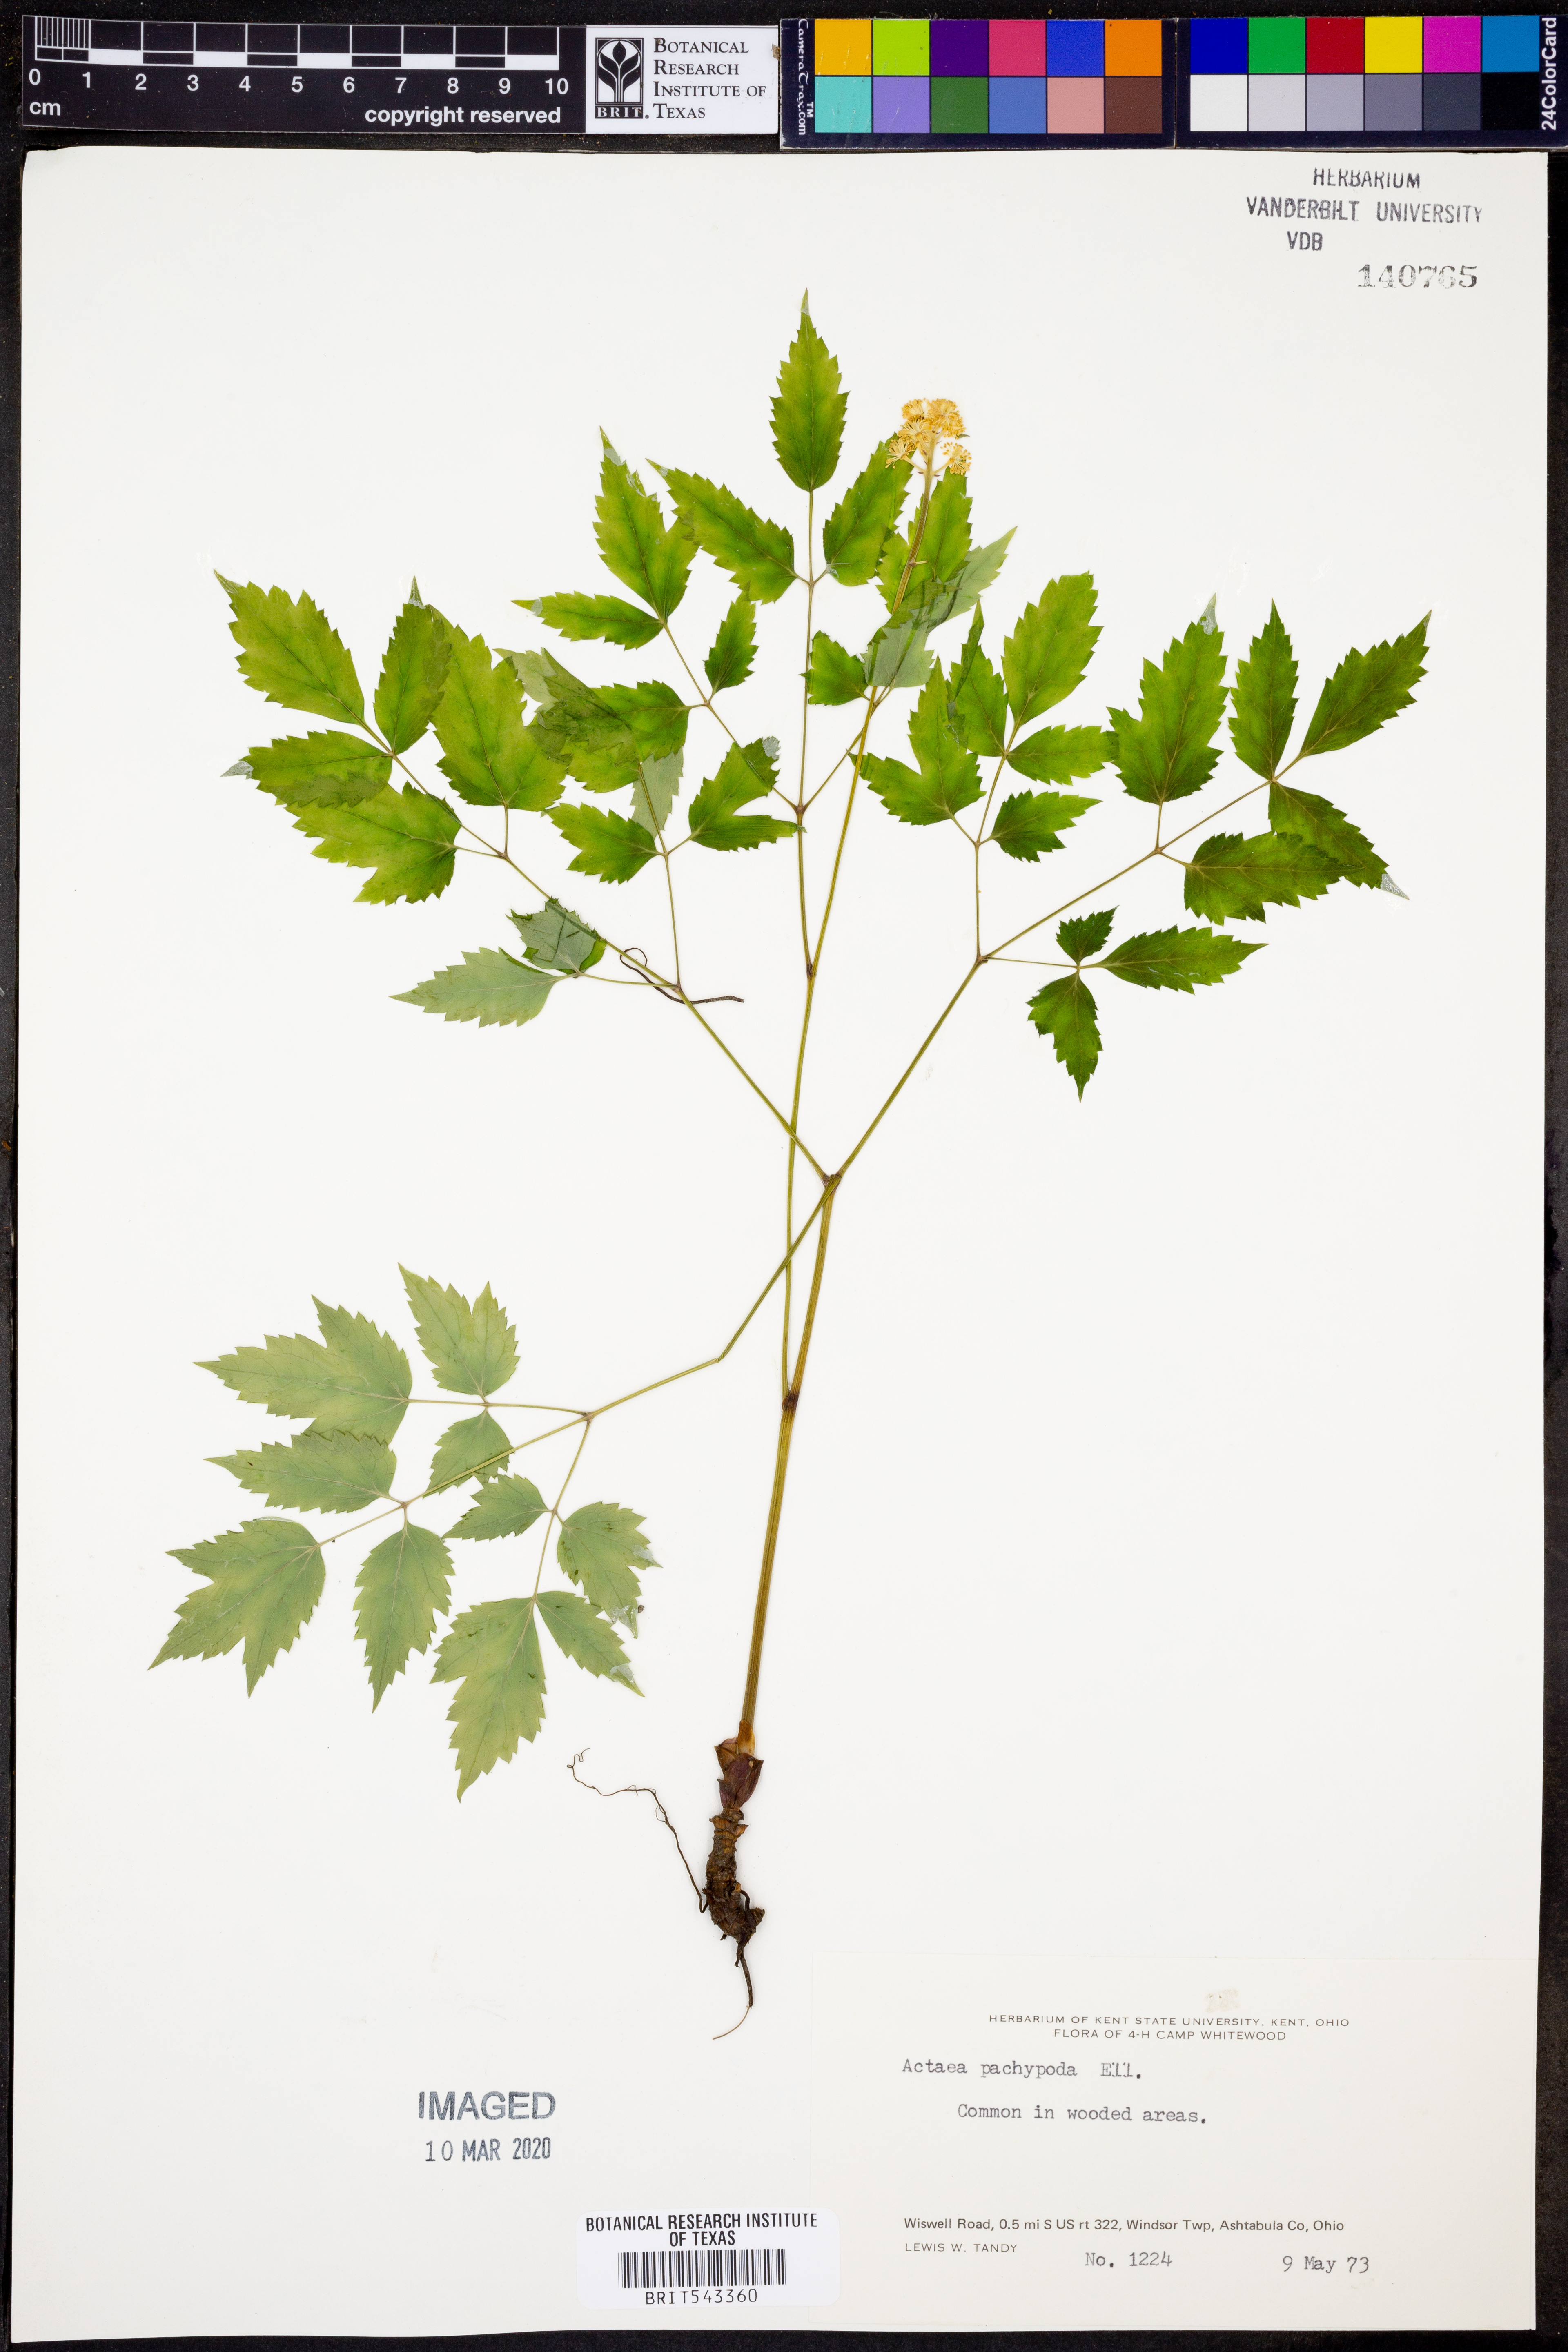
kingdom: Plantae
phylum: Tracheophyta
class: Magnoliopsida
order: Ranunculales
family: Ranunculaceae
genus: Actaea
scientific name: Actaea pachypoda
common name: Doll's-eyes
